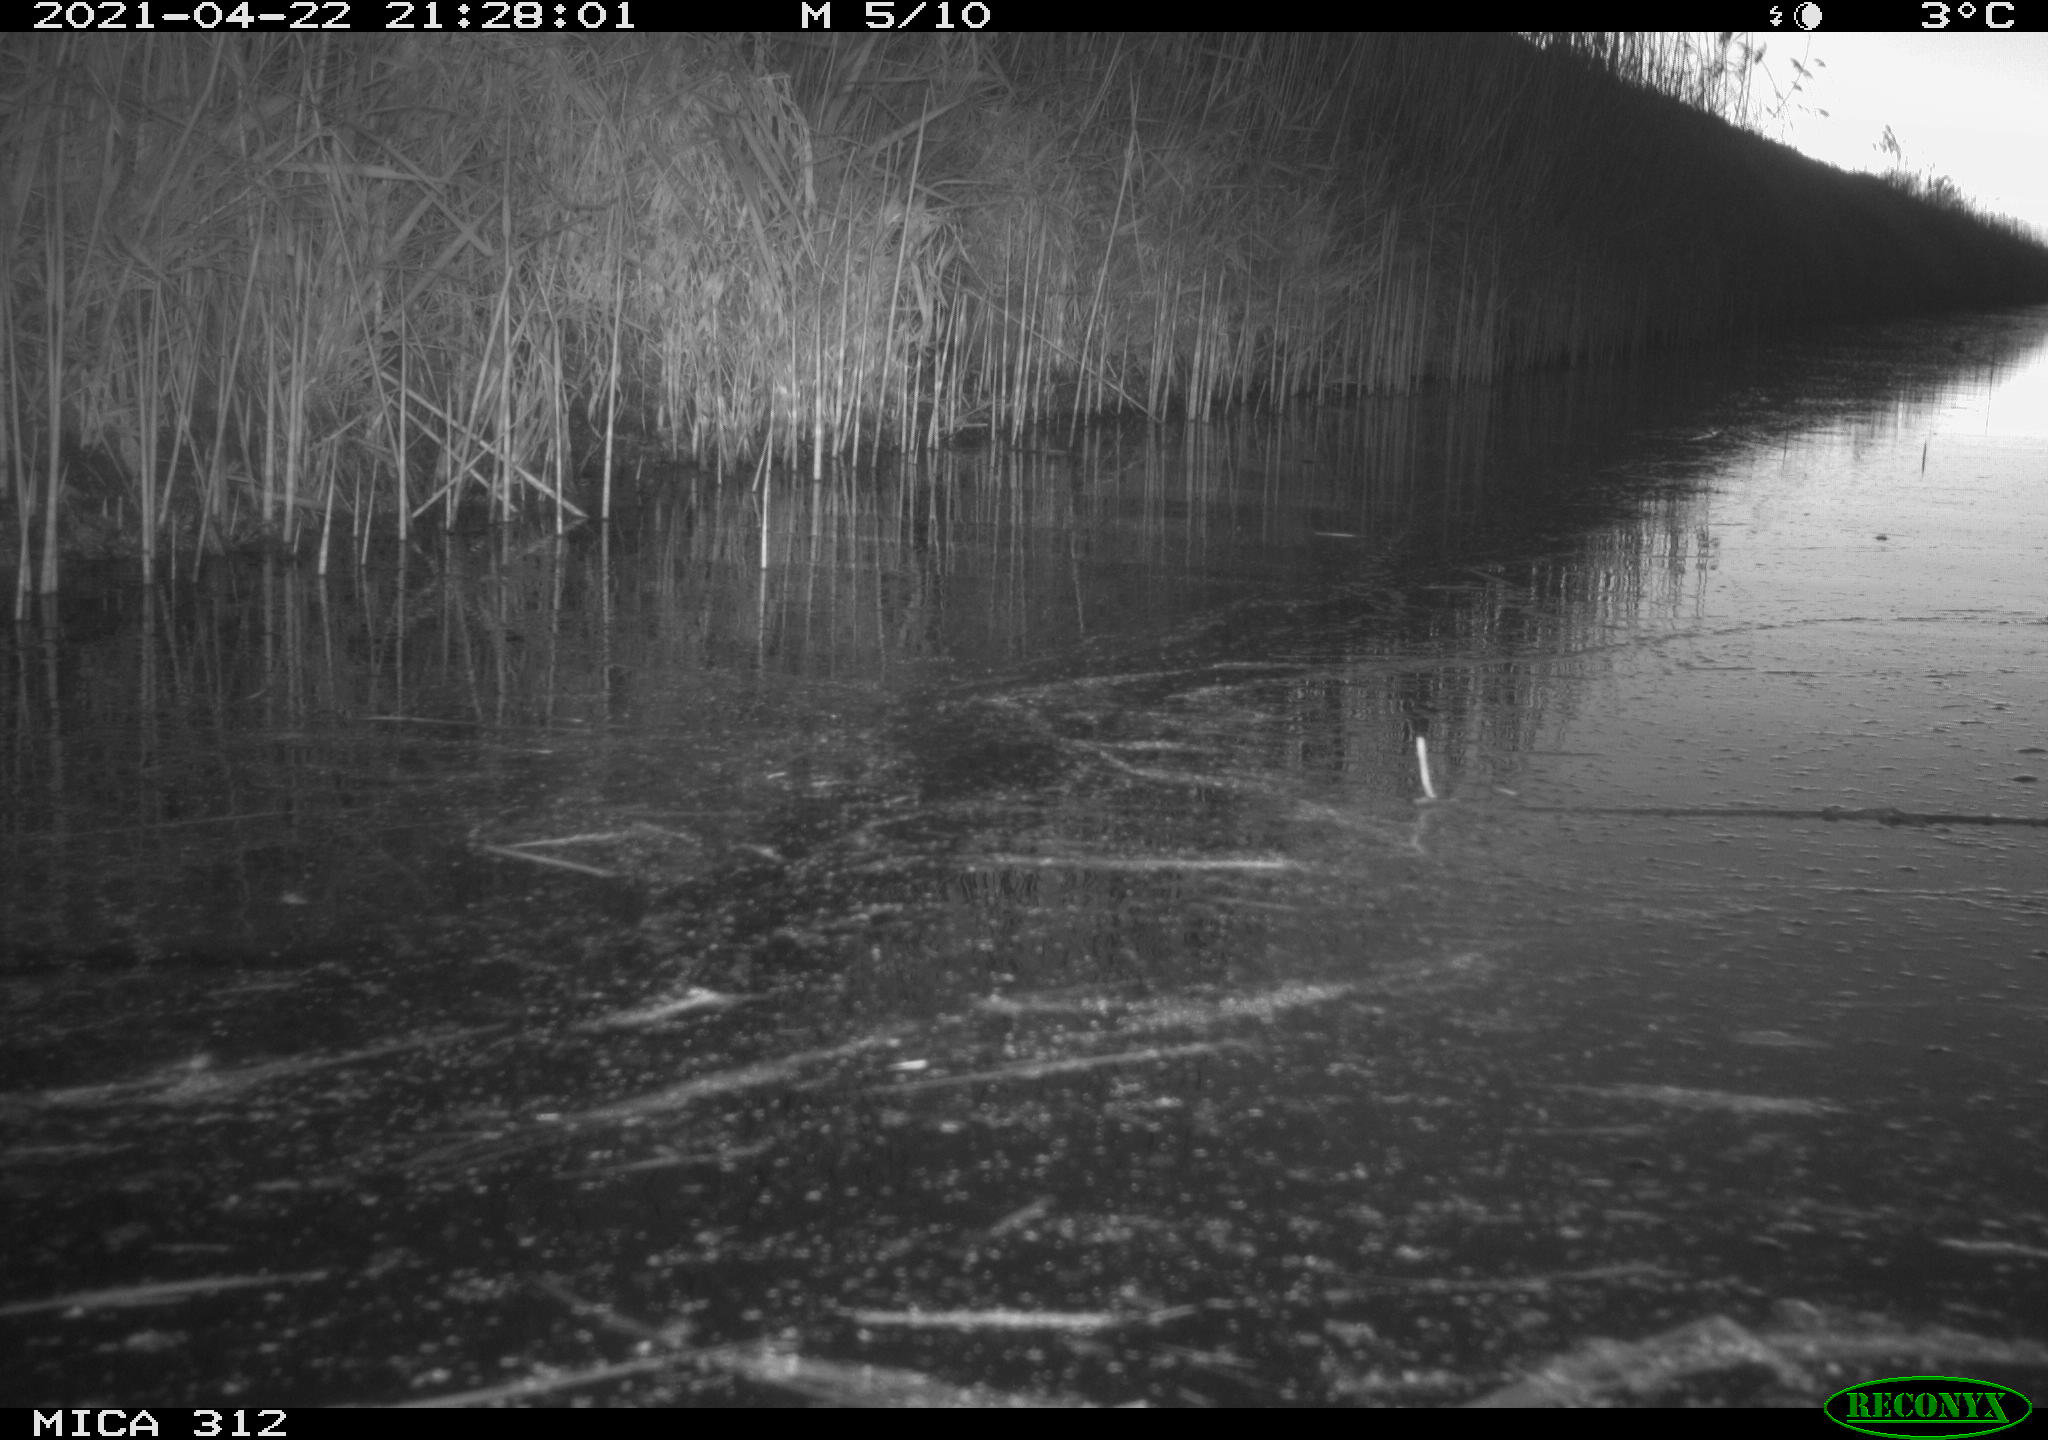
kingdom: Animalia
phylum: Chordata
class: Aves
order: Gruiformes
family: Rallidae
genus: Fulica
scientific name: Fulica atra
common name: Eurasian coot
